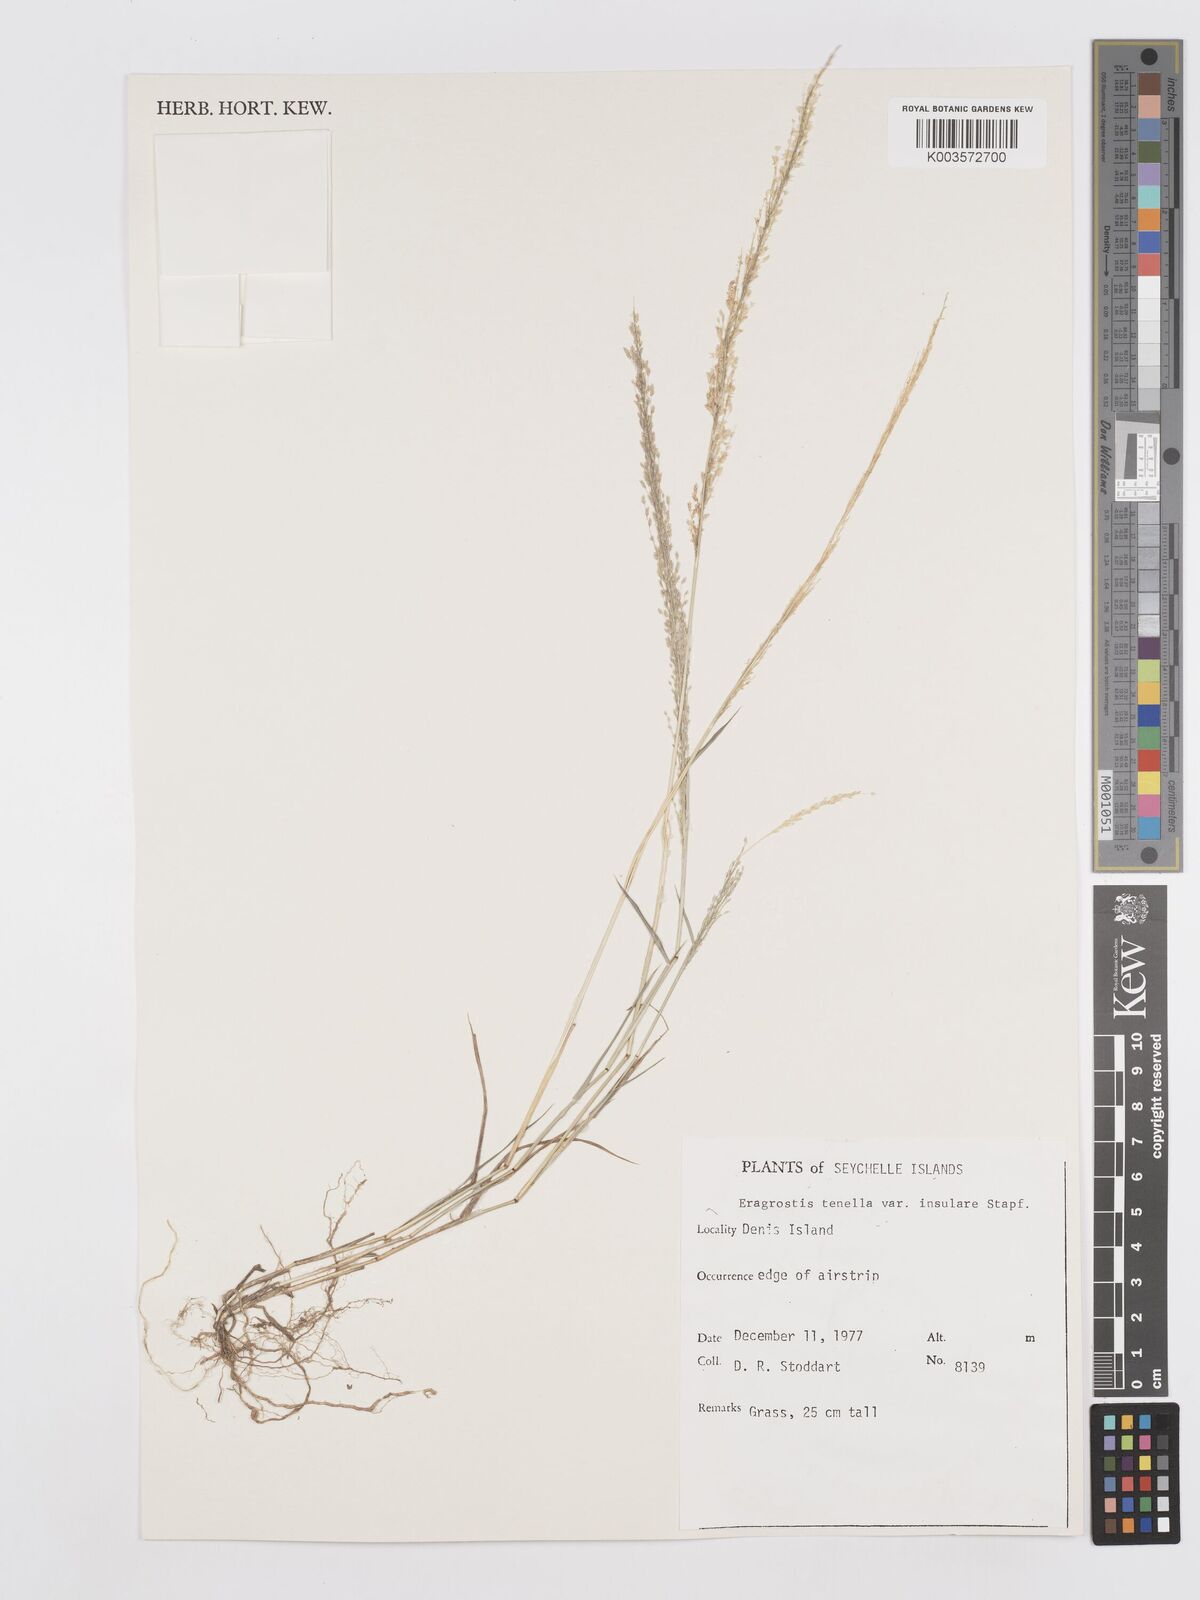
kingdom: Plantae
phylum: Tracheophyta
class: Liliopsida
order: Poales
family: Poaceae
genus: Eragrostis
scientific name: Eragrostis tenella
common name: Japanese lovegrass
